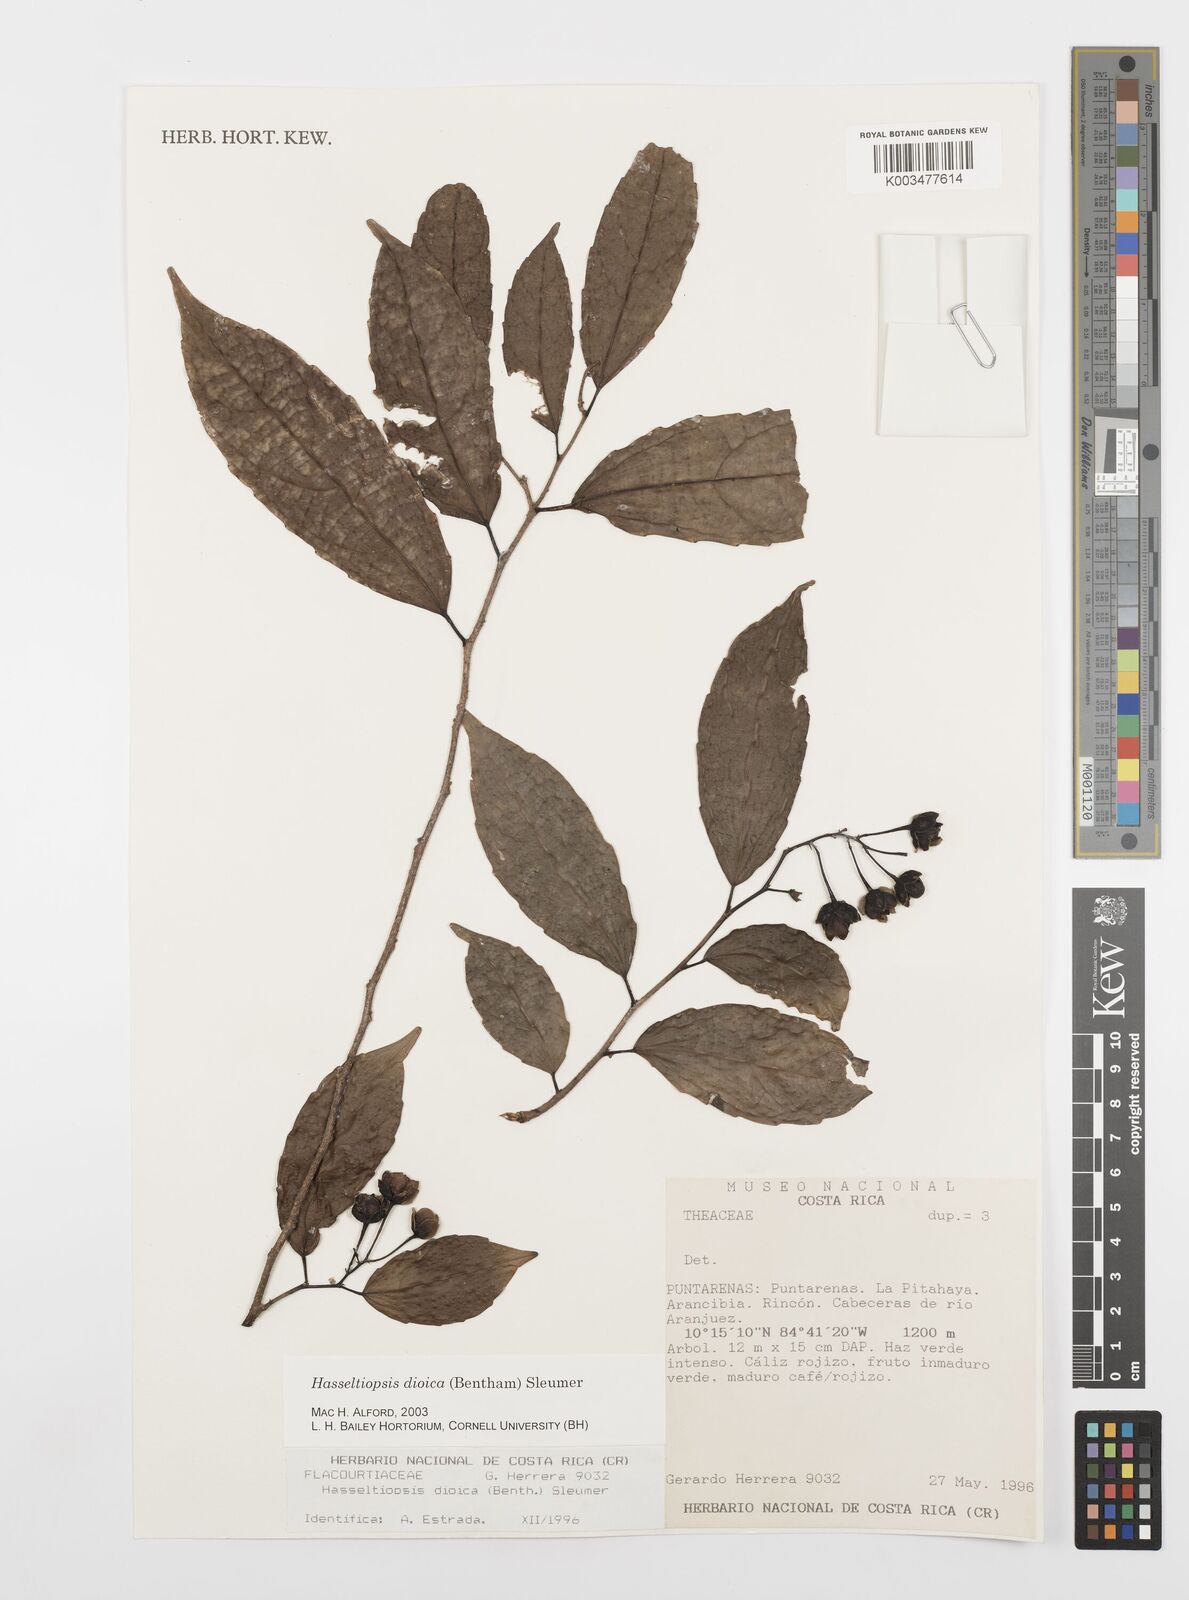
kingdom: Plantae
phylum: Tracheophyta
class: Magnoliopsida
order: Malpighiales
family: Salicaceae
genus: Hasseltiopsis
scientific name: Hasseltiopsis dioica
